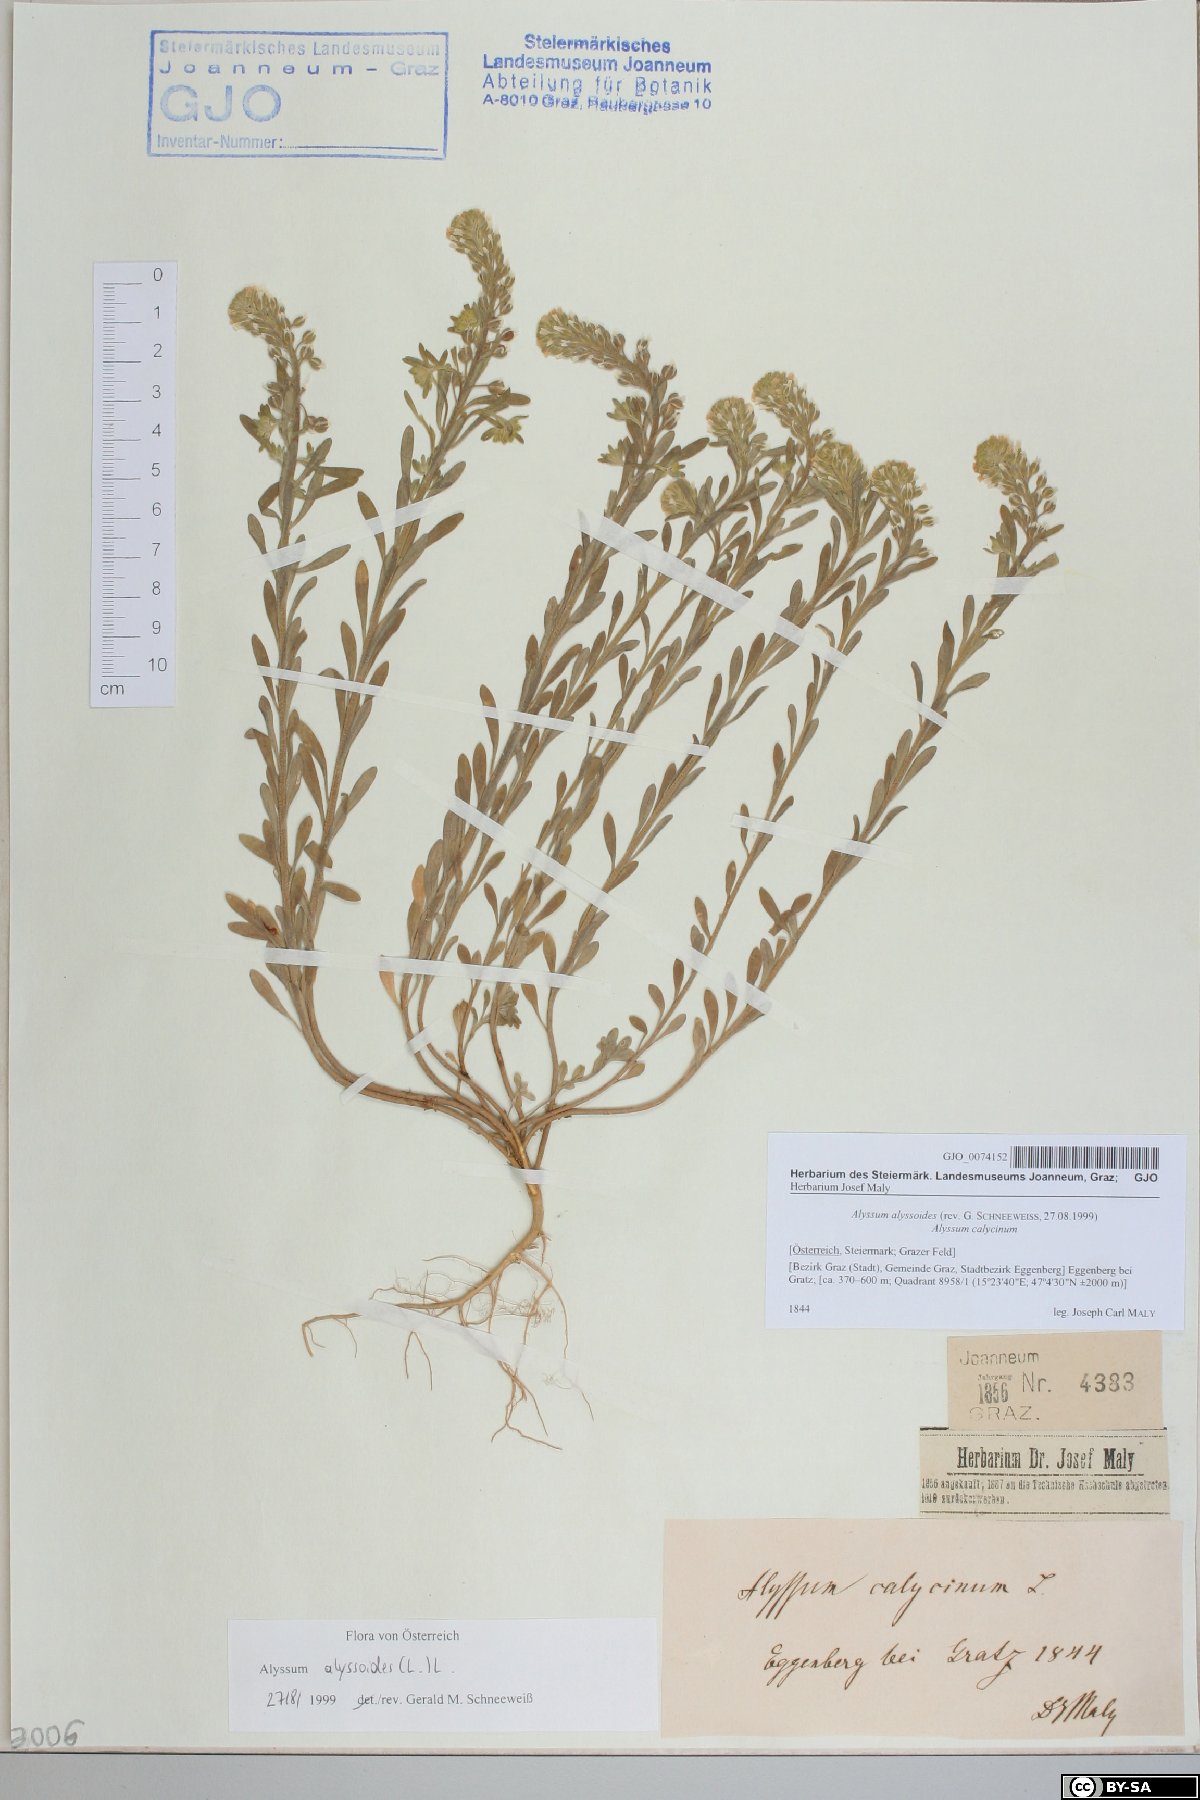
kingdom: Plantae
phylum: Tracheophyta
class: Magnoliopsida
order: Brassicales
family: Brassicaceae
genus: Alyssum
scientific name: Alyssum alyssoides
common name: Small alison
